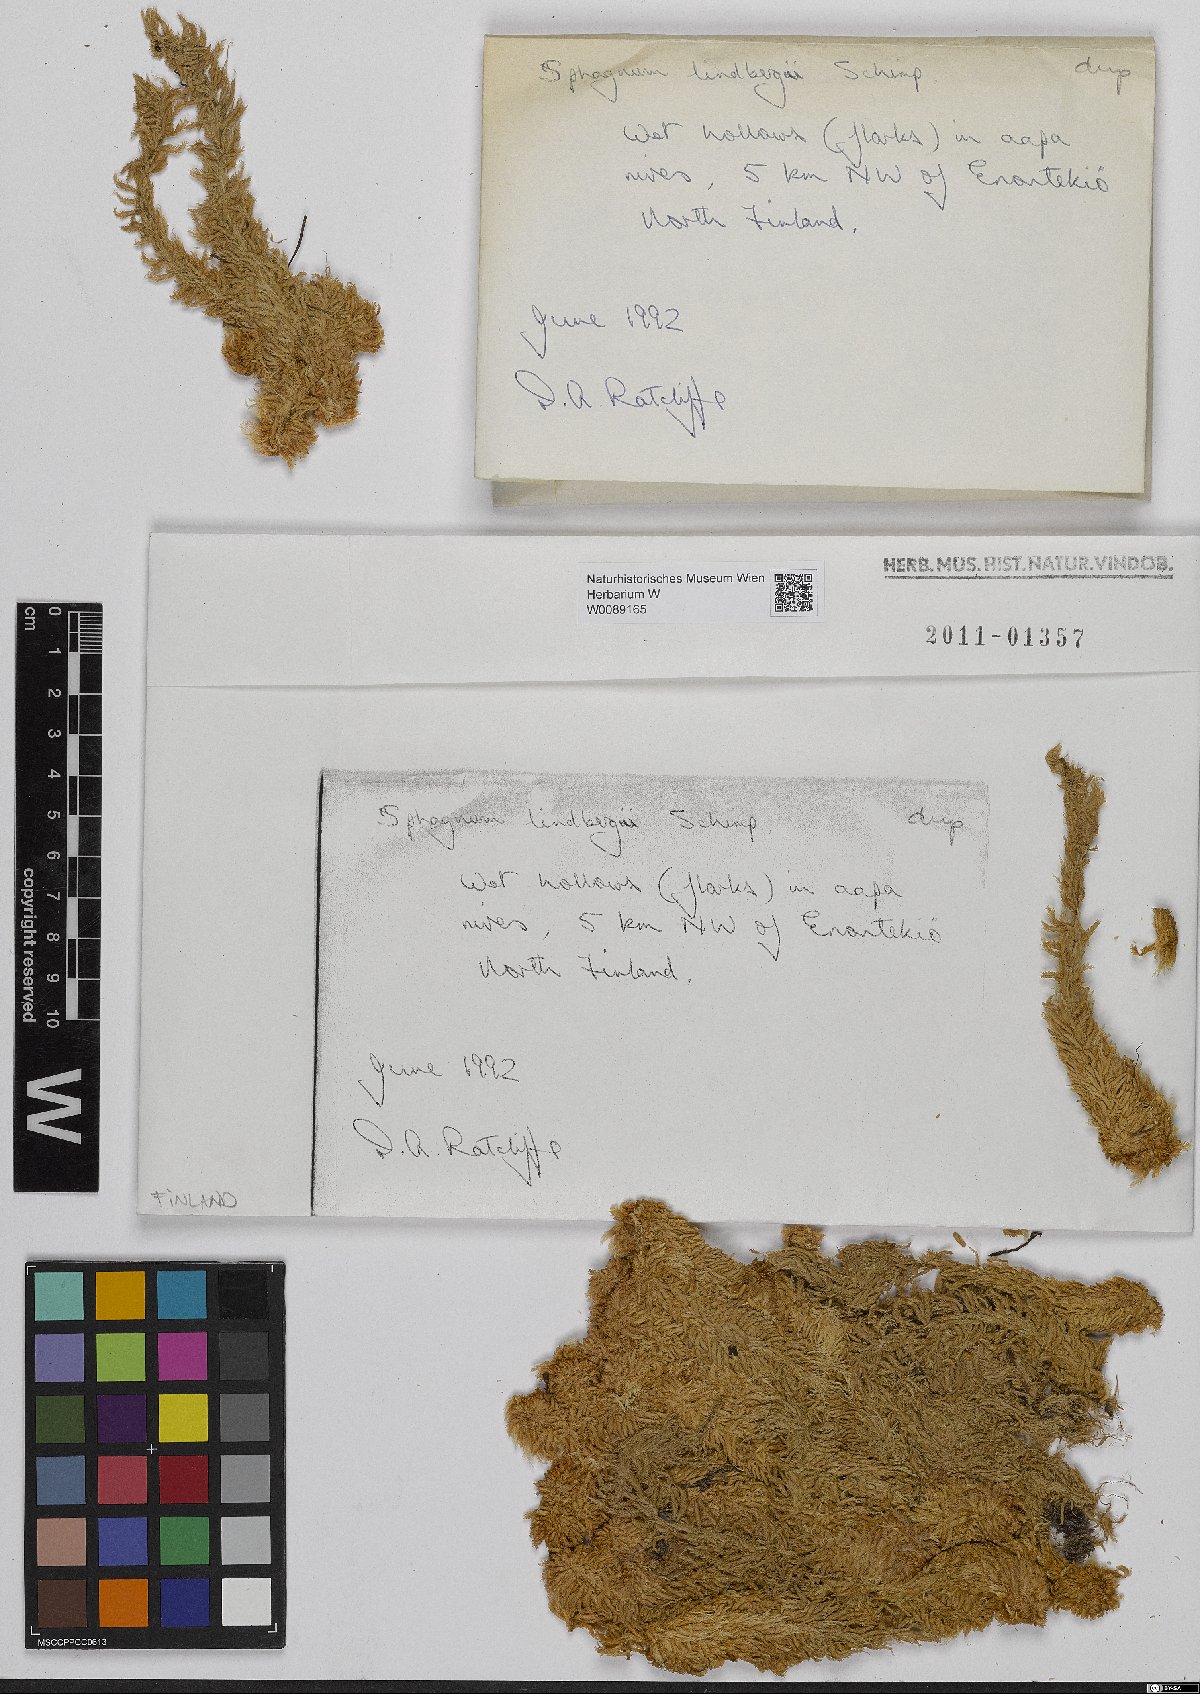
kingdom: Plantae
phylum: Bryophyta
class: Sphagnopsida
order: Sphagnales
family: Sphagnaceae
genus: Sphagnum
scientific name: Sphagnum lindbergii
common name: Lindberg's peat moss
